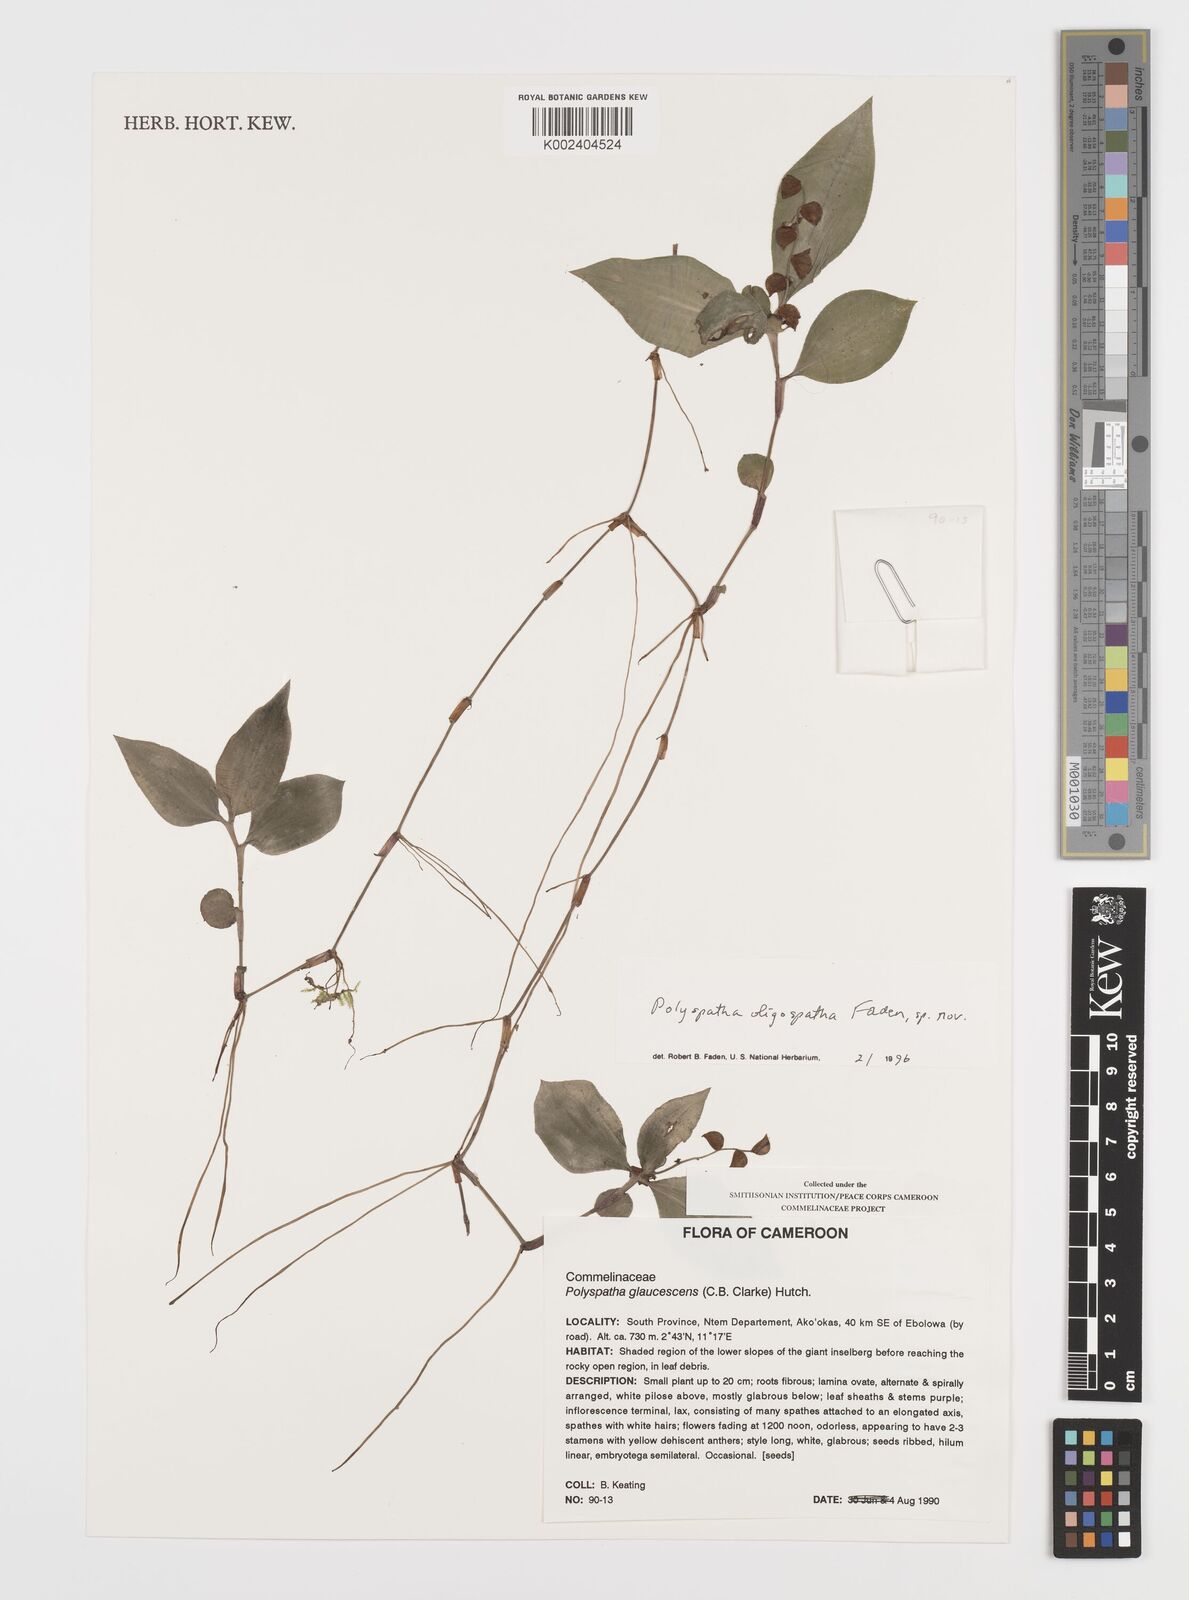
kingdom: Plantae
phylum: Tracheophyta
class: Liliopsida
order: Commelinales
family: Commelinaceae
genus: Polyspatha
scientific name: Polyspatha paniculata
